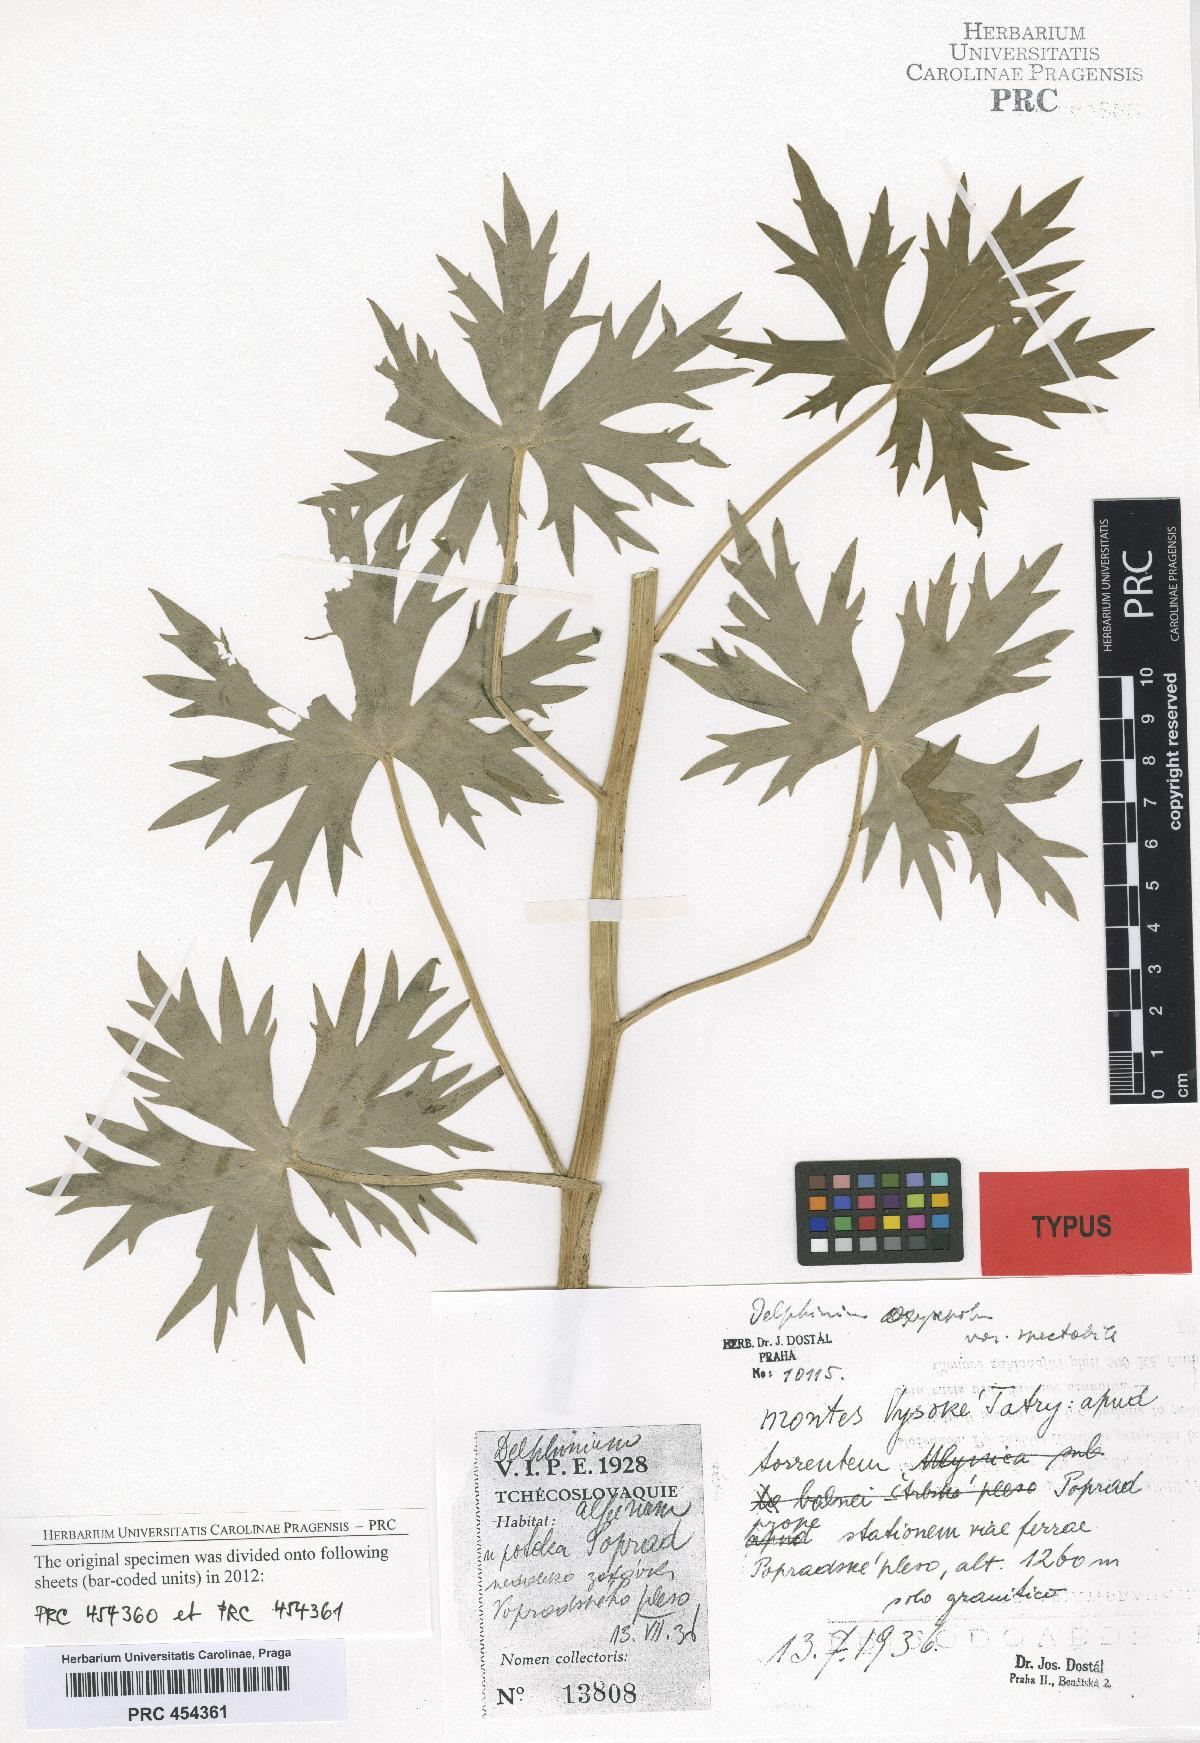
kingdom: Plantae
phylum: Tracheophyta
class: Magnoliopsida
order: Ranunculales
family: Ranunculaceae
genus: Delphinium
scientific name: Delphinium oxysepalum
